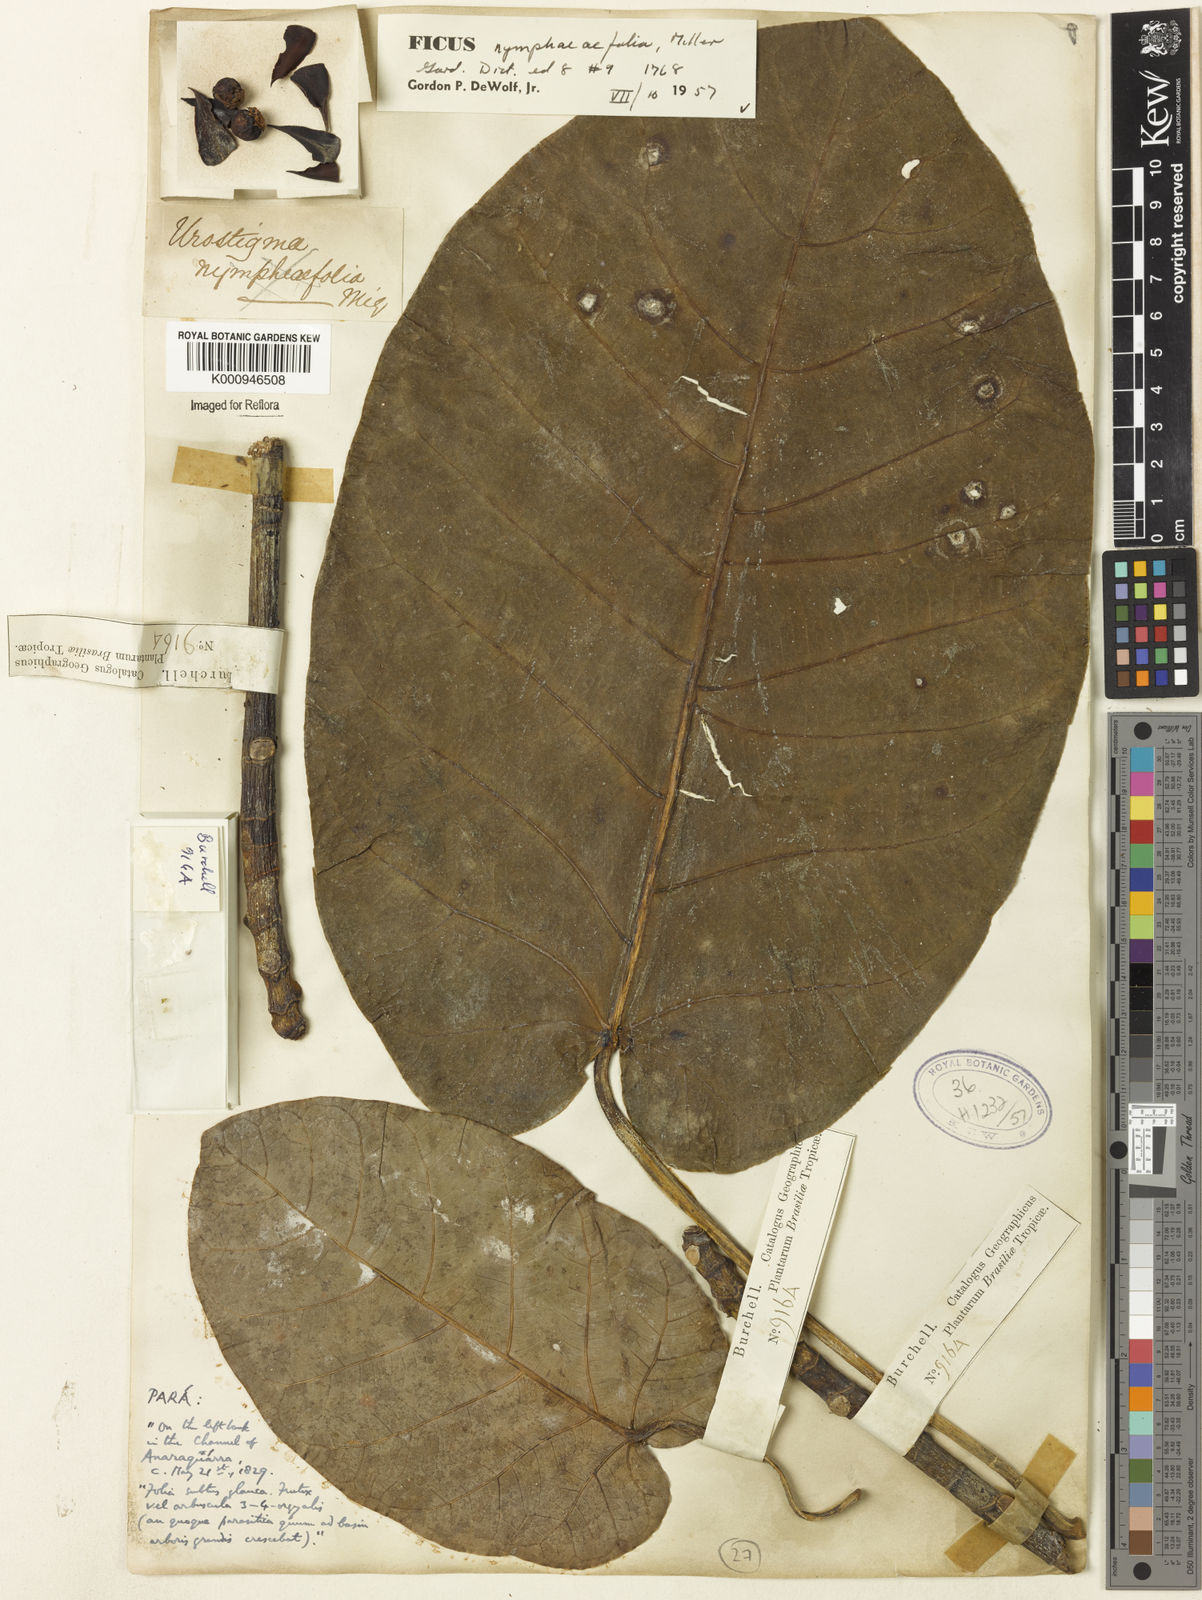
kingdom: Plantae
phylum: Tracheophyta
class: Magnoliopsida
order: Rosales
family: Moraceae
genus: Ficus
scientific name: Ficus
